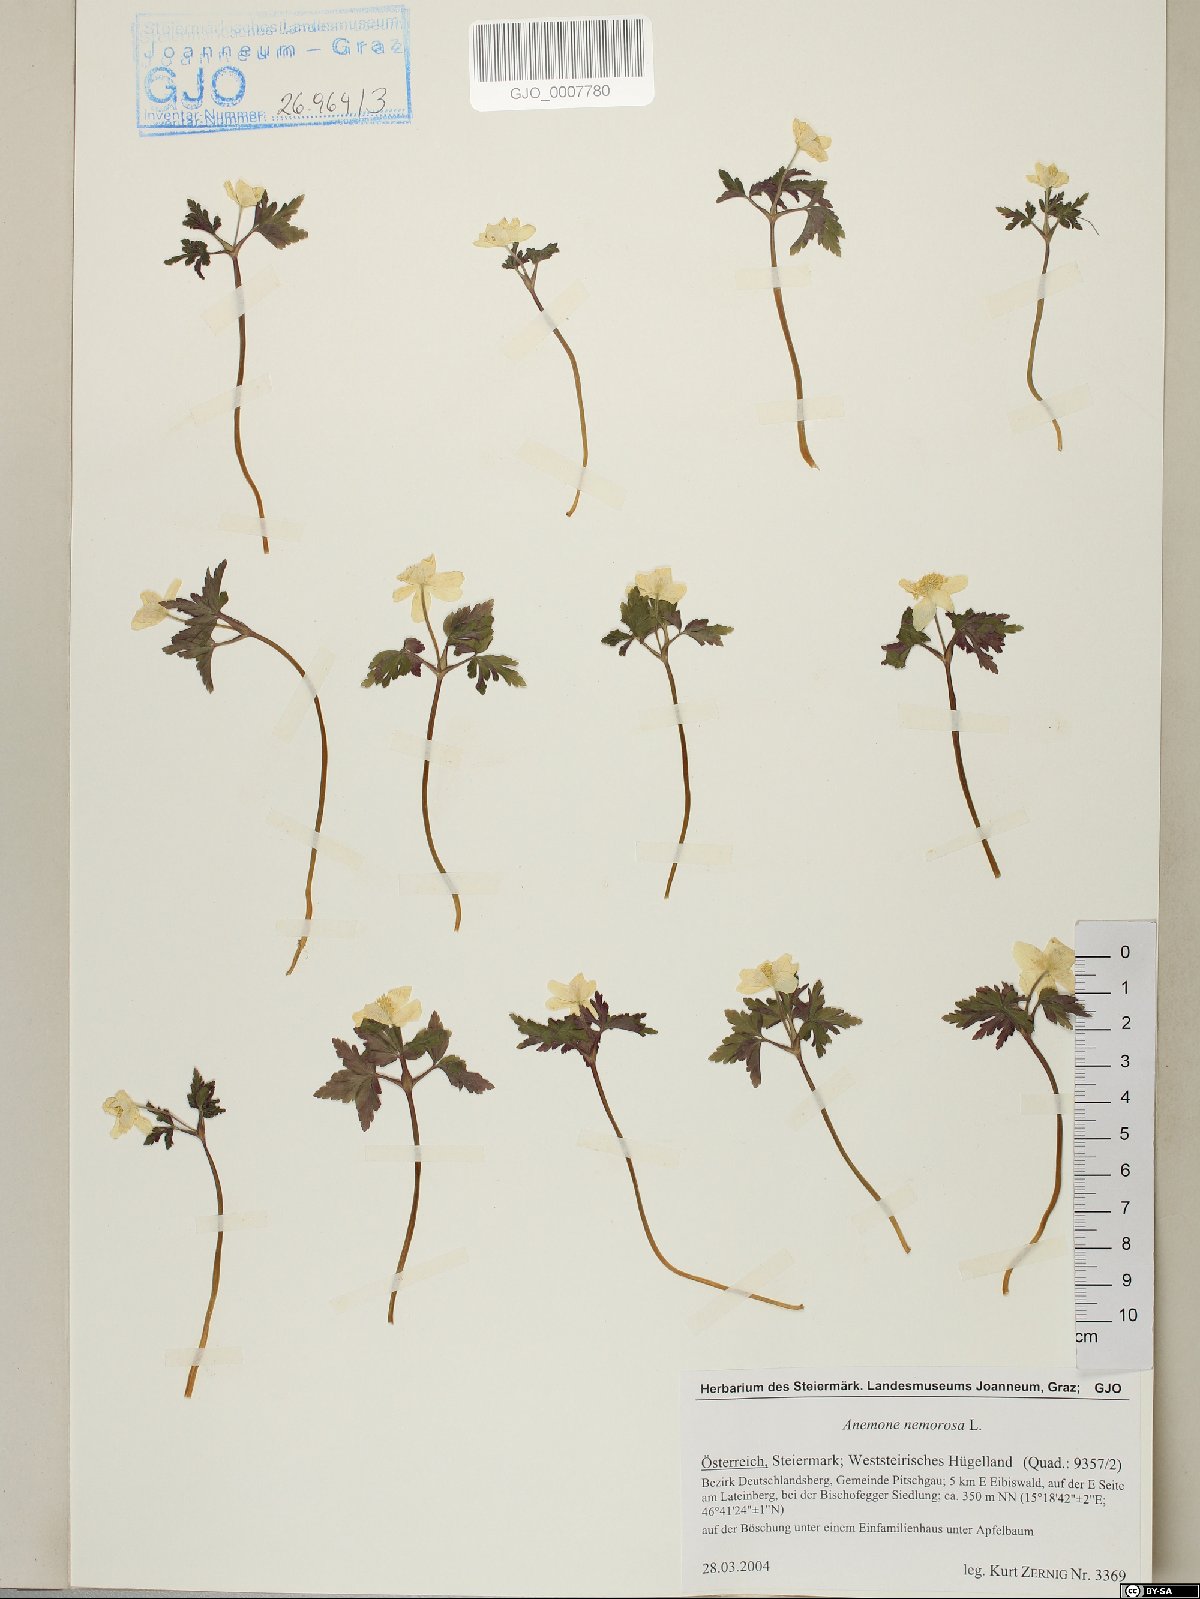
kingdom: Plantae
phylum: Tracheophyta
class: Magnoliopsida
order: Ranunculales
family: Ranunculaceae
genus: Anemone
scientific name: Anemone nemorosa
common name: Wood anemone
